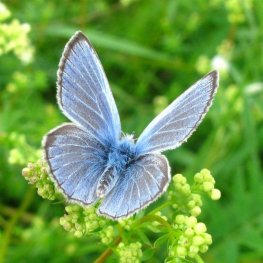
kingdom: Animalia
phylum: Arthropoda
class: Insecta
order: Lepidoptera
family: Lycaenidae
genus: Glaucopsyche
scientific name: Glaucopsyche lygdamus
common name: Silvery Blue
